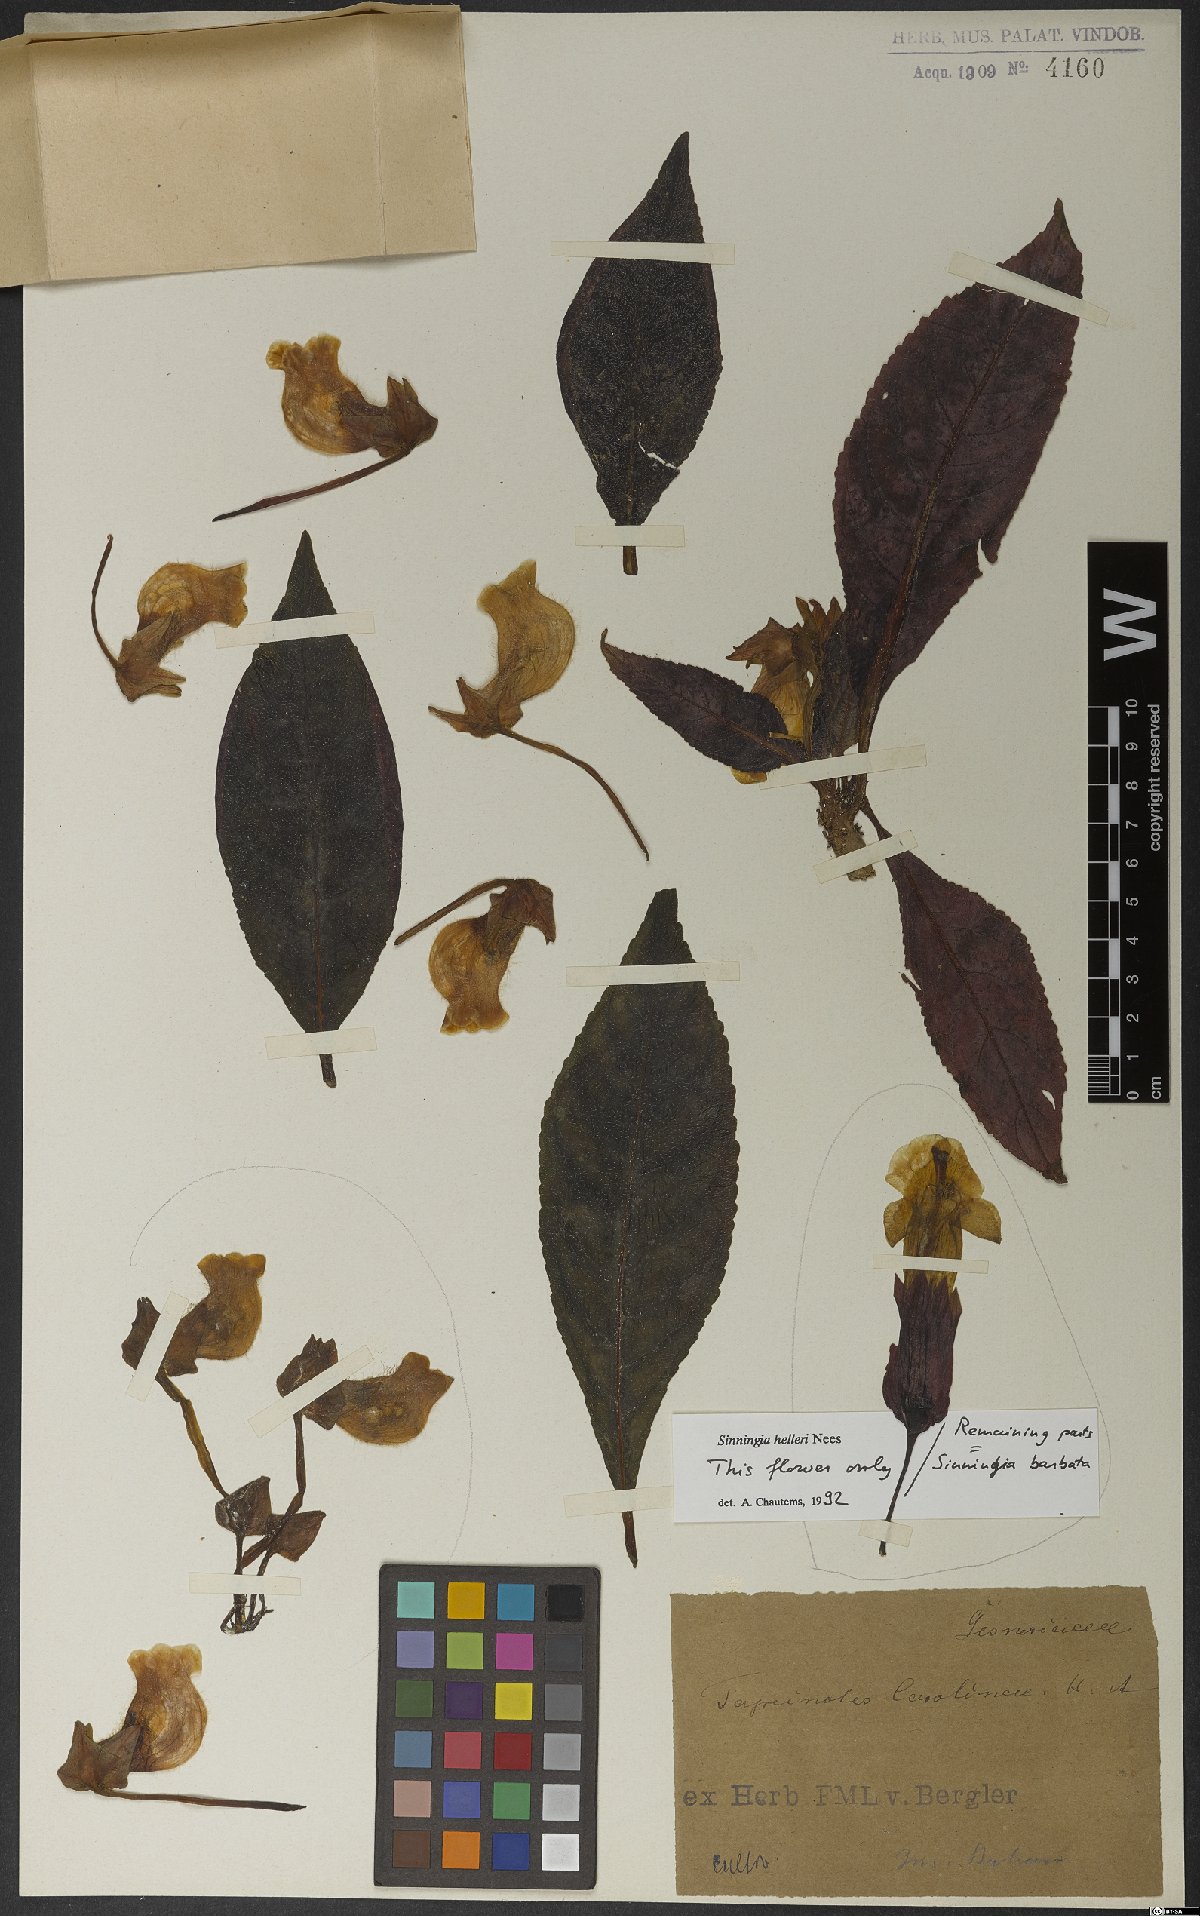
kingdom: Plantae
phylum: Tracheophyta
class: Magnoliopsida
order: Lamiales
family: Gesneriaceae
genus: Sinningia
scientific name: Sinningia barbata
